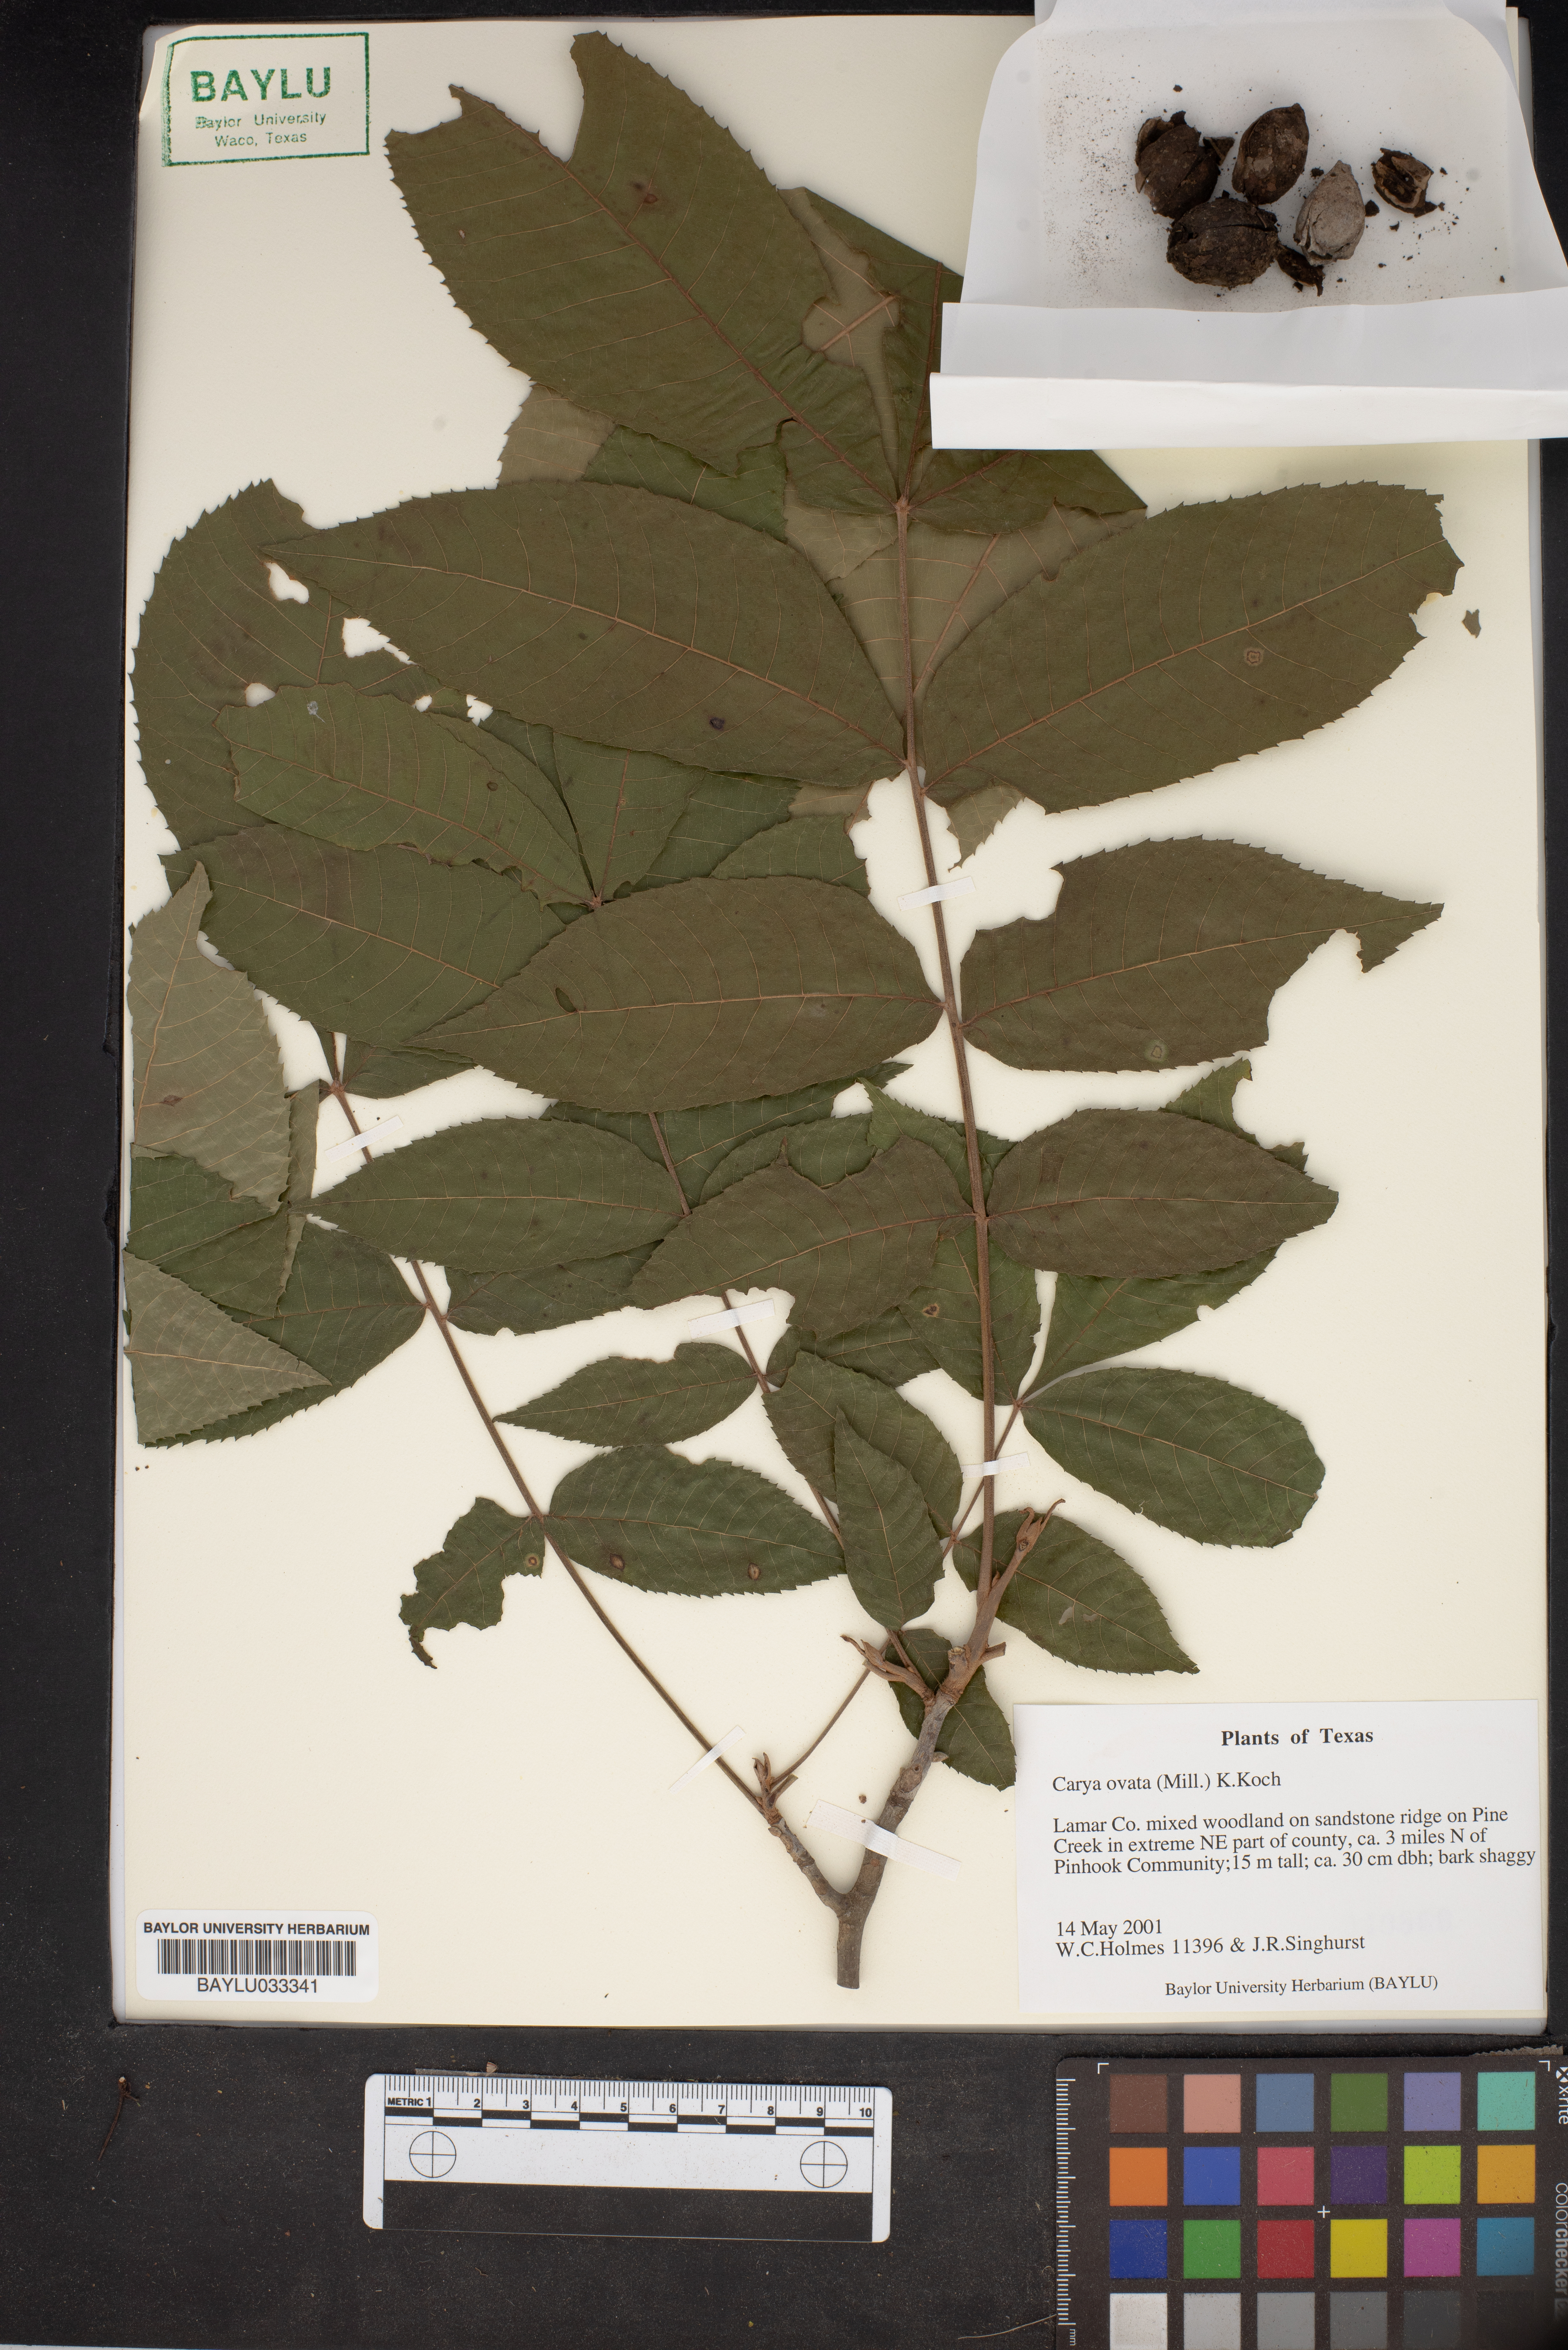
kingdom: Plantae
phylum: Tracheophyta
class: Magnoliopsida
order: Fagales
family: Juglandaceae
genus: Carya
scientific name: Carya ovata
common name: Shagbark hickory
